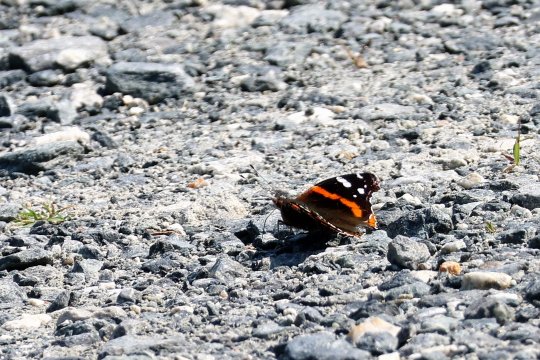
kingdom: Animalia
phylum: Arthropoda
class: Insecta
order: Lepidoptera
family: Nymphalidae
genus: Vanessa
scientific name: Vanessa atalanta
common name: Red Admiral
